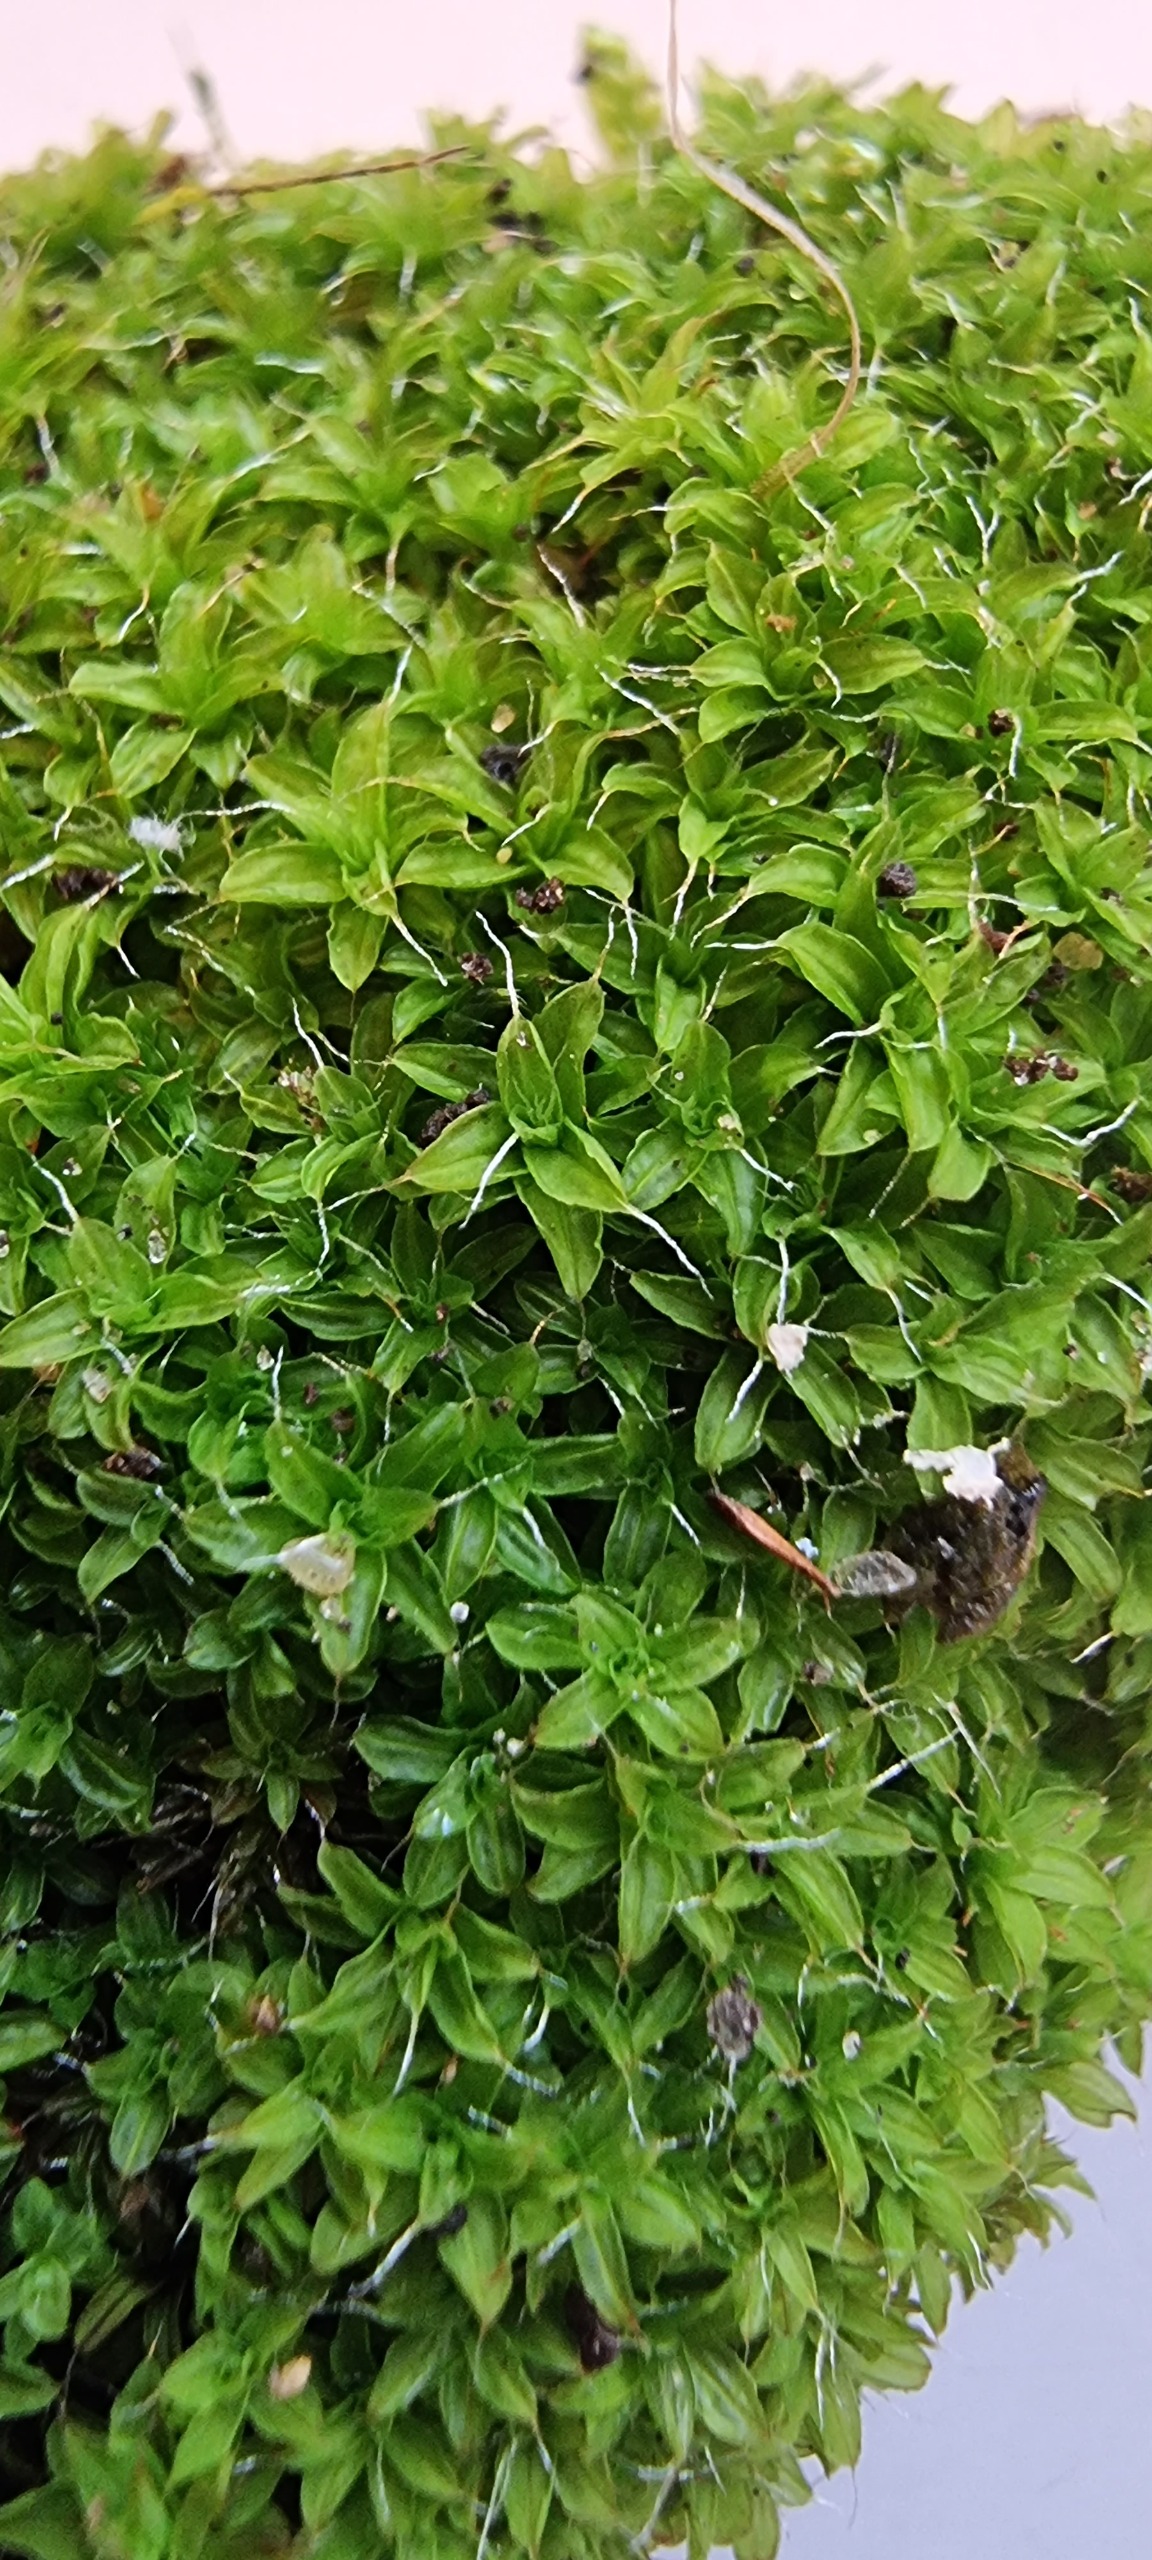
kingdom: Plantae
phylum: Bryophyta
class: Bryopsida
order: Pottiales
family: Pottiaceae
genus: Syntrichia
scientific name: Syntrichia virescens
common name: Grøn hårstjerne
